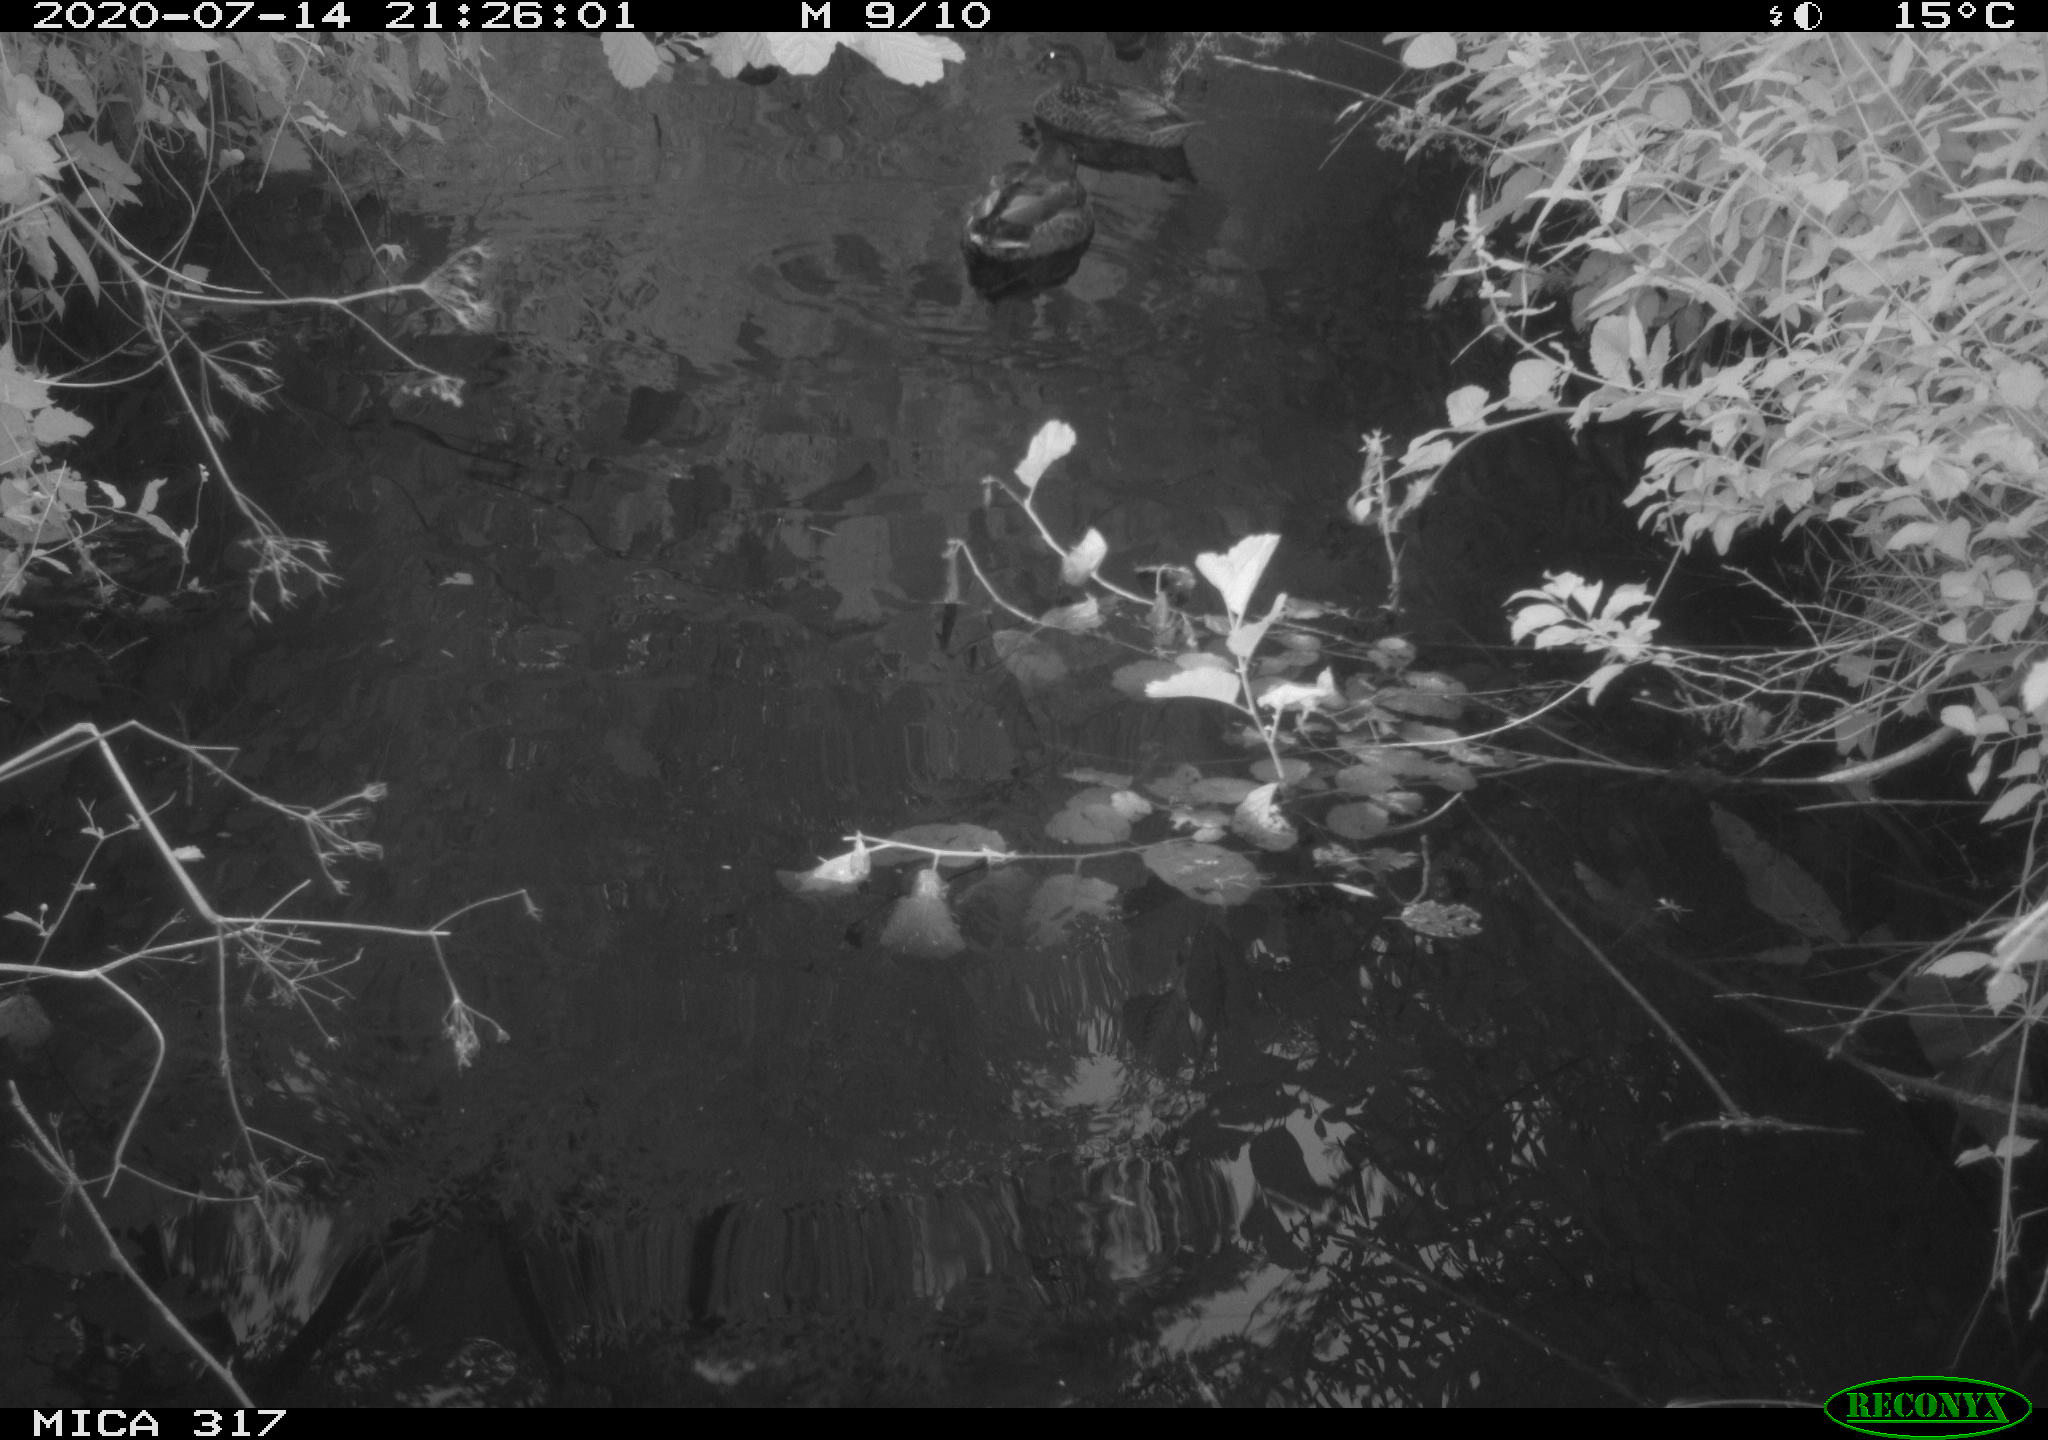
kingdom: Animalia
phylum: Chordata
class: Aves
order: Anseriformes
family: Anatidae
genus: Anas
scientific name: Anas platyrhynchos
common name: Mallard
